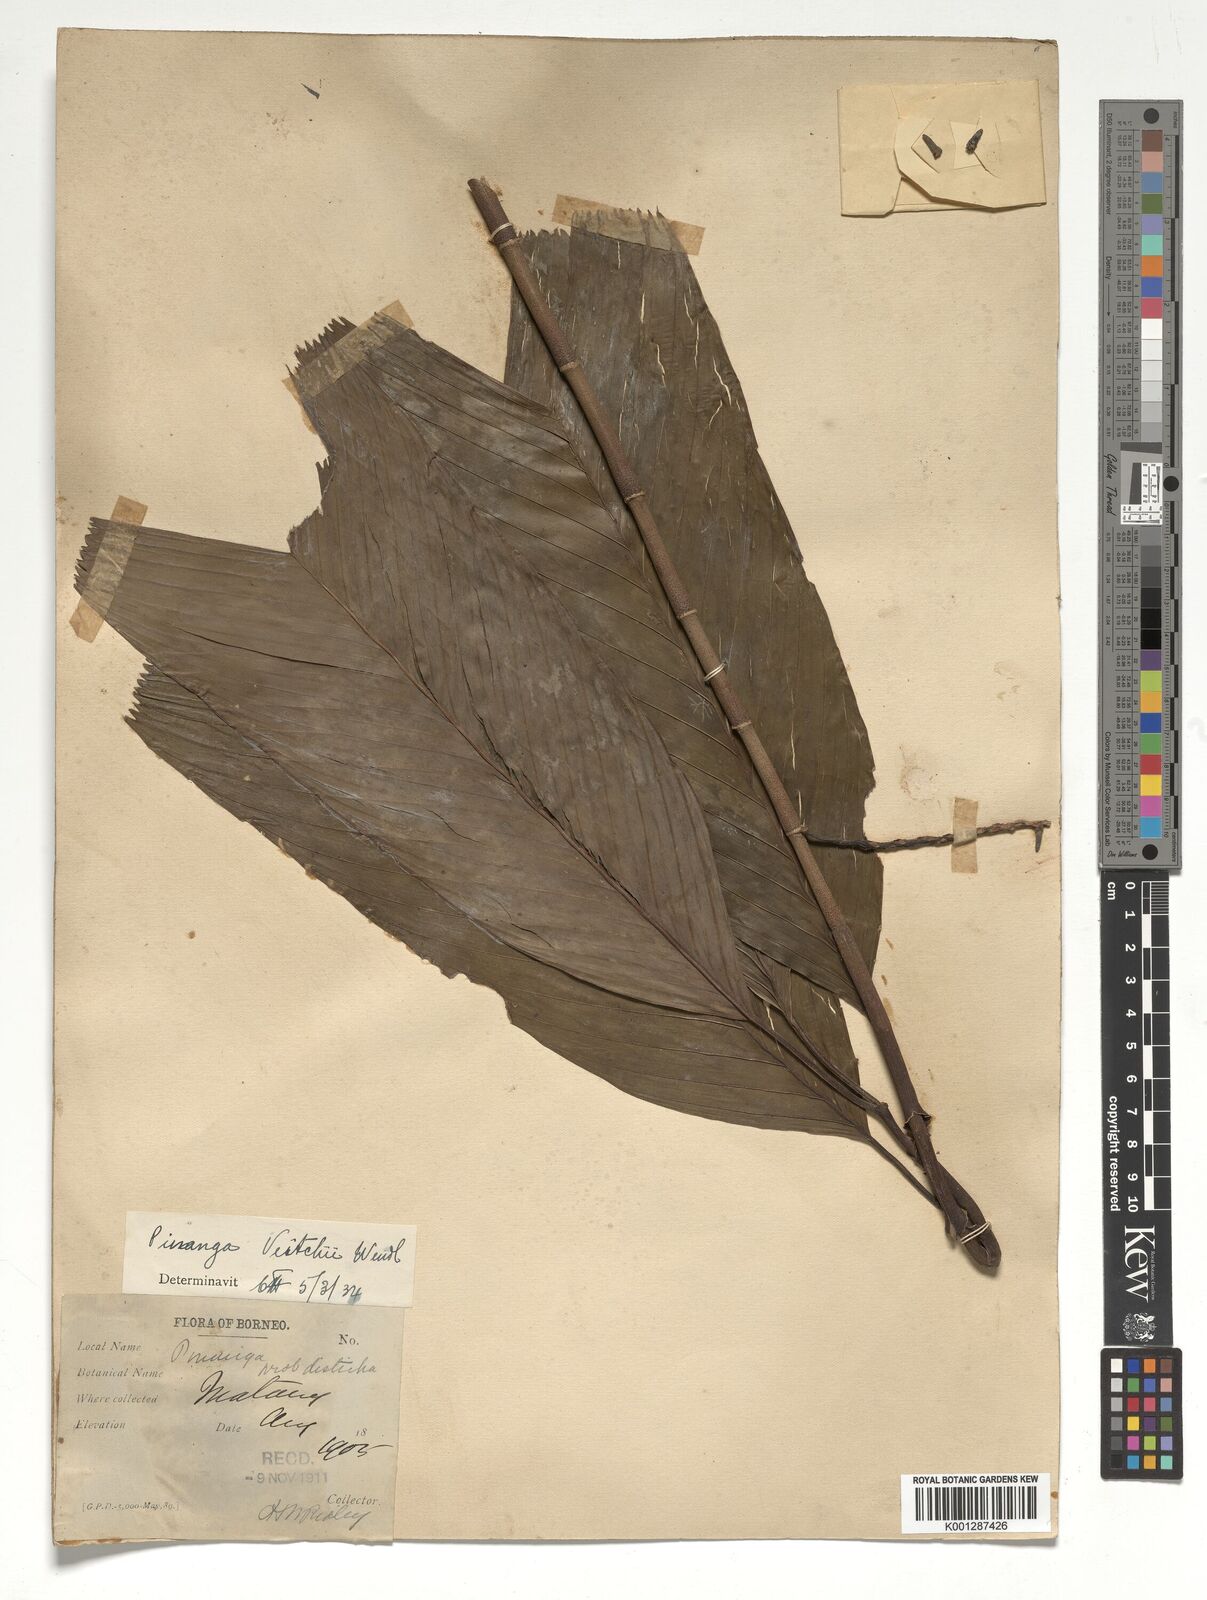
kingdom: Plantae
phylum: Tracheophyta
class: Liliopsida
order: Arecales
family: Arecaceae
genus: Pinanga
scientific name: Pinanga veitchii
